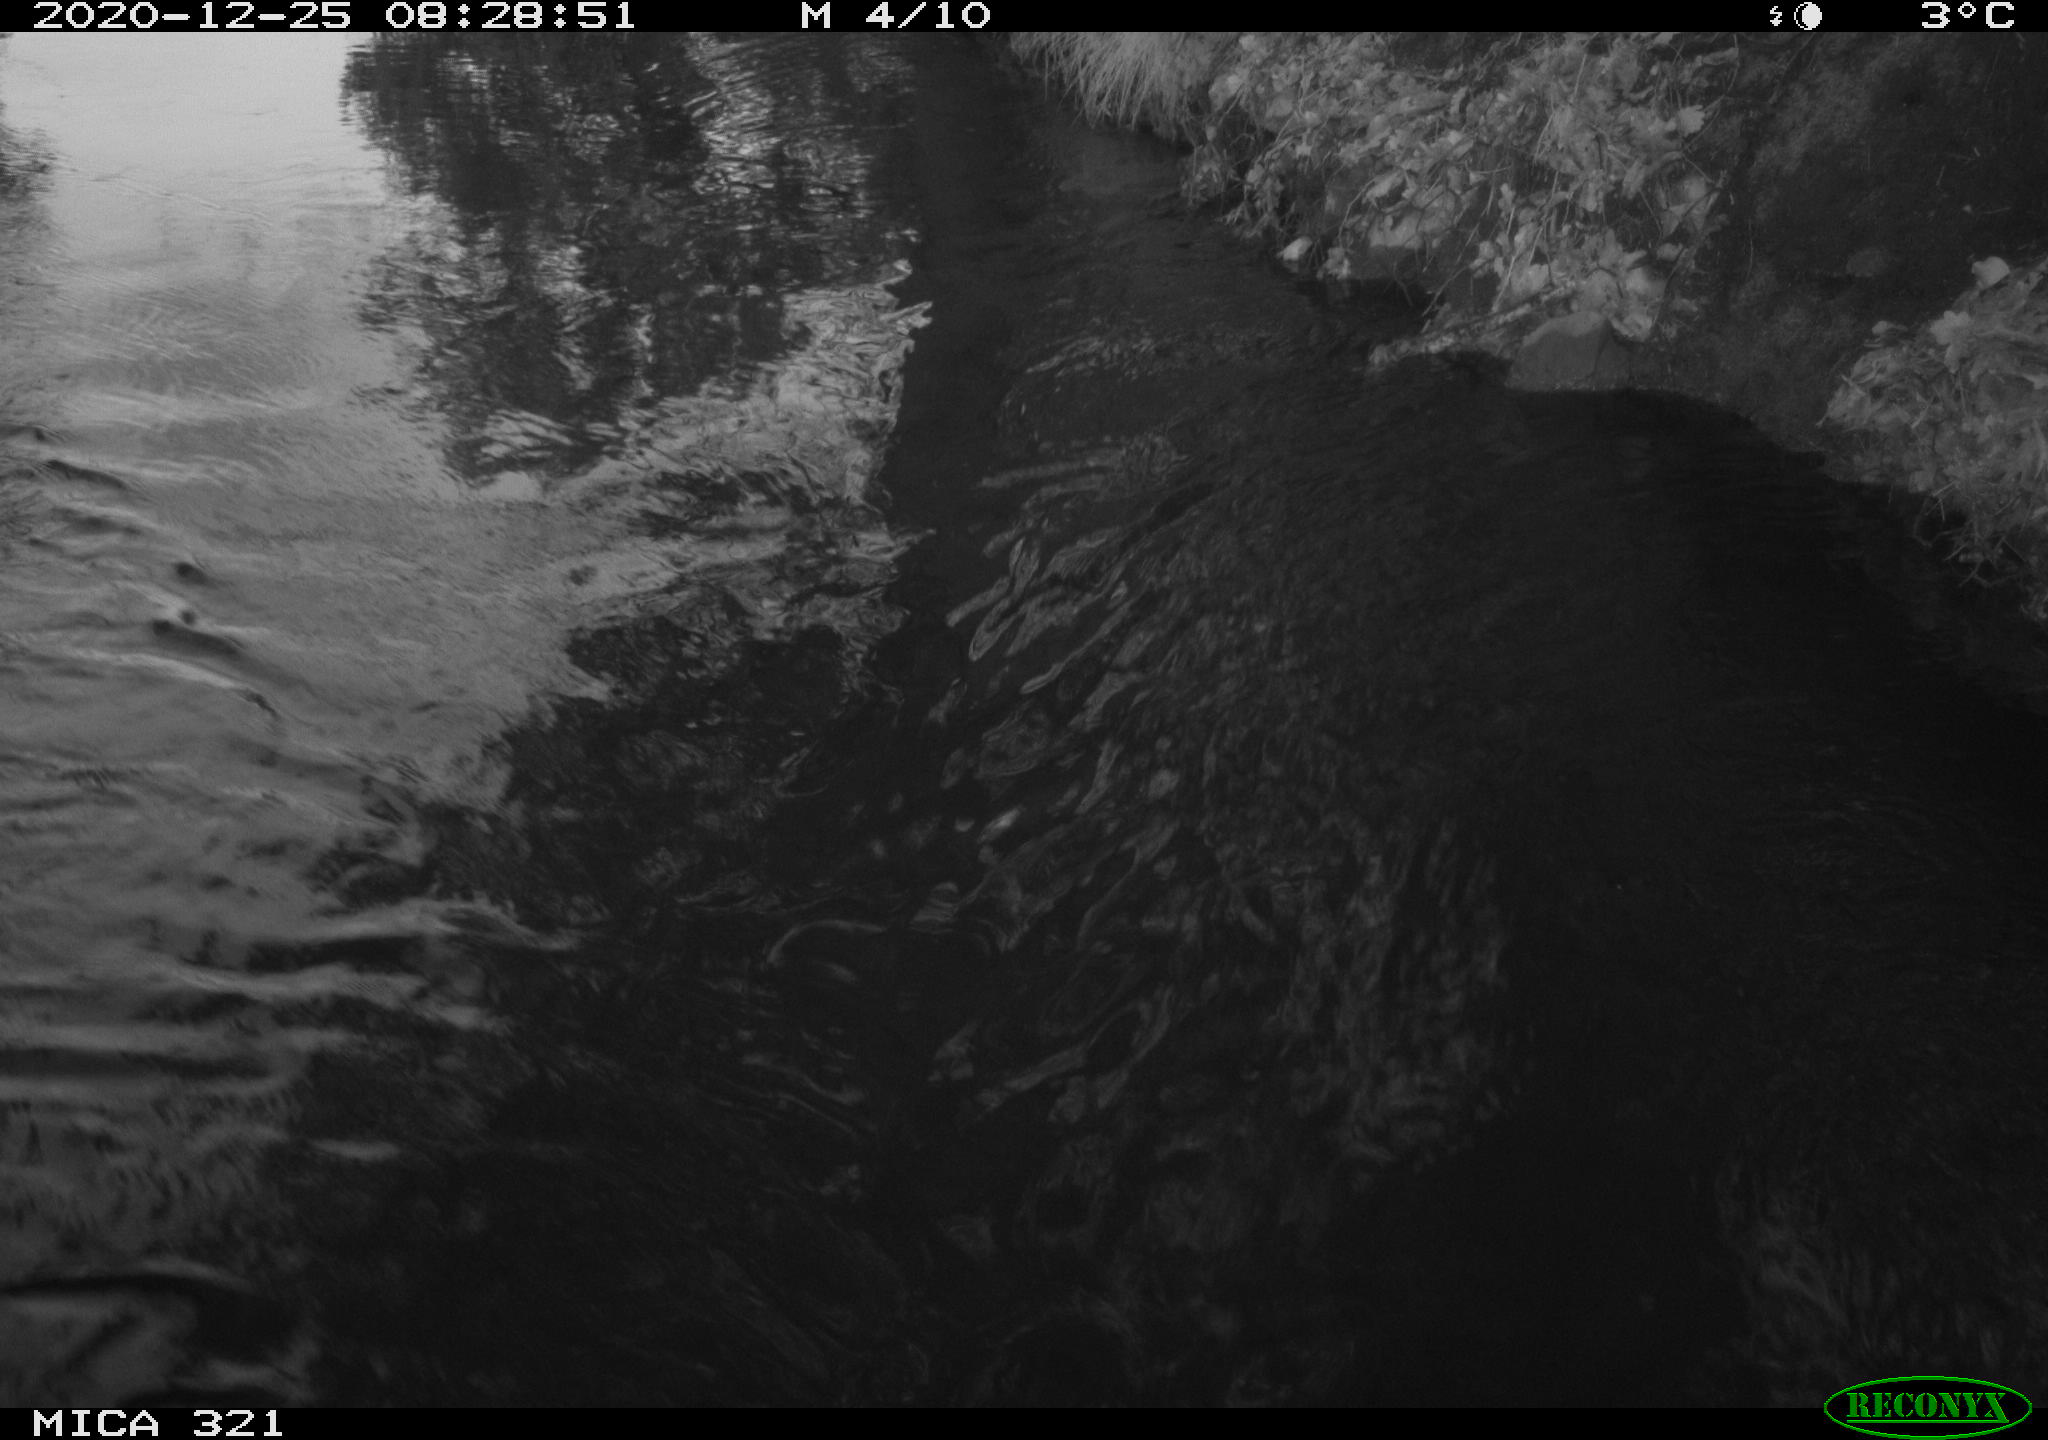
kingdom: Animalia
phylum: Chordata
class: Aves
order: Anseriformes
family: Anatidae
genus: Anas
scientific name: Anas platyrhynchos
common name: Mallard
